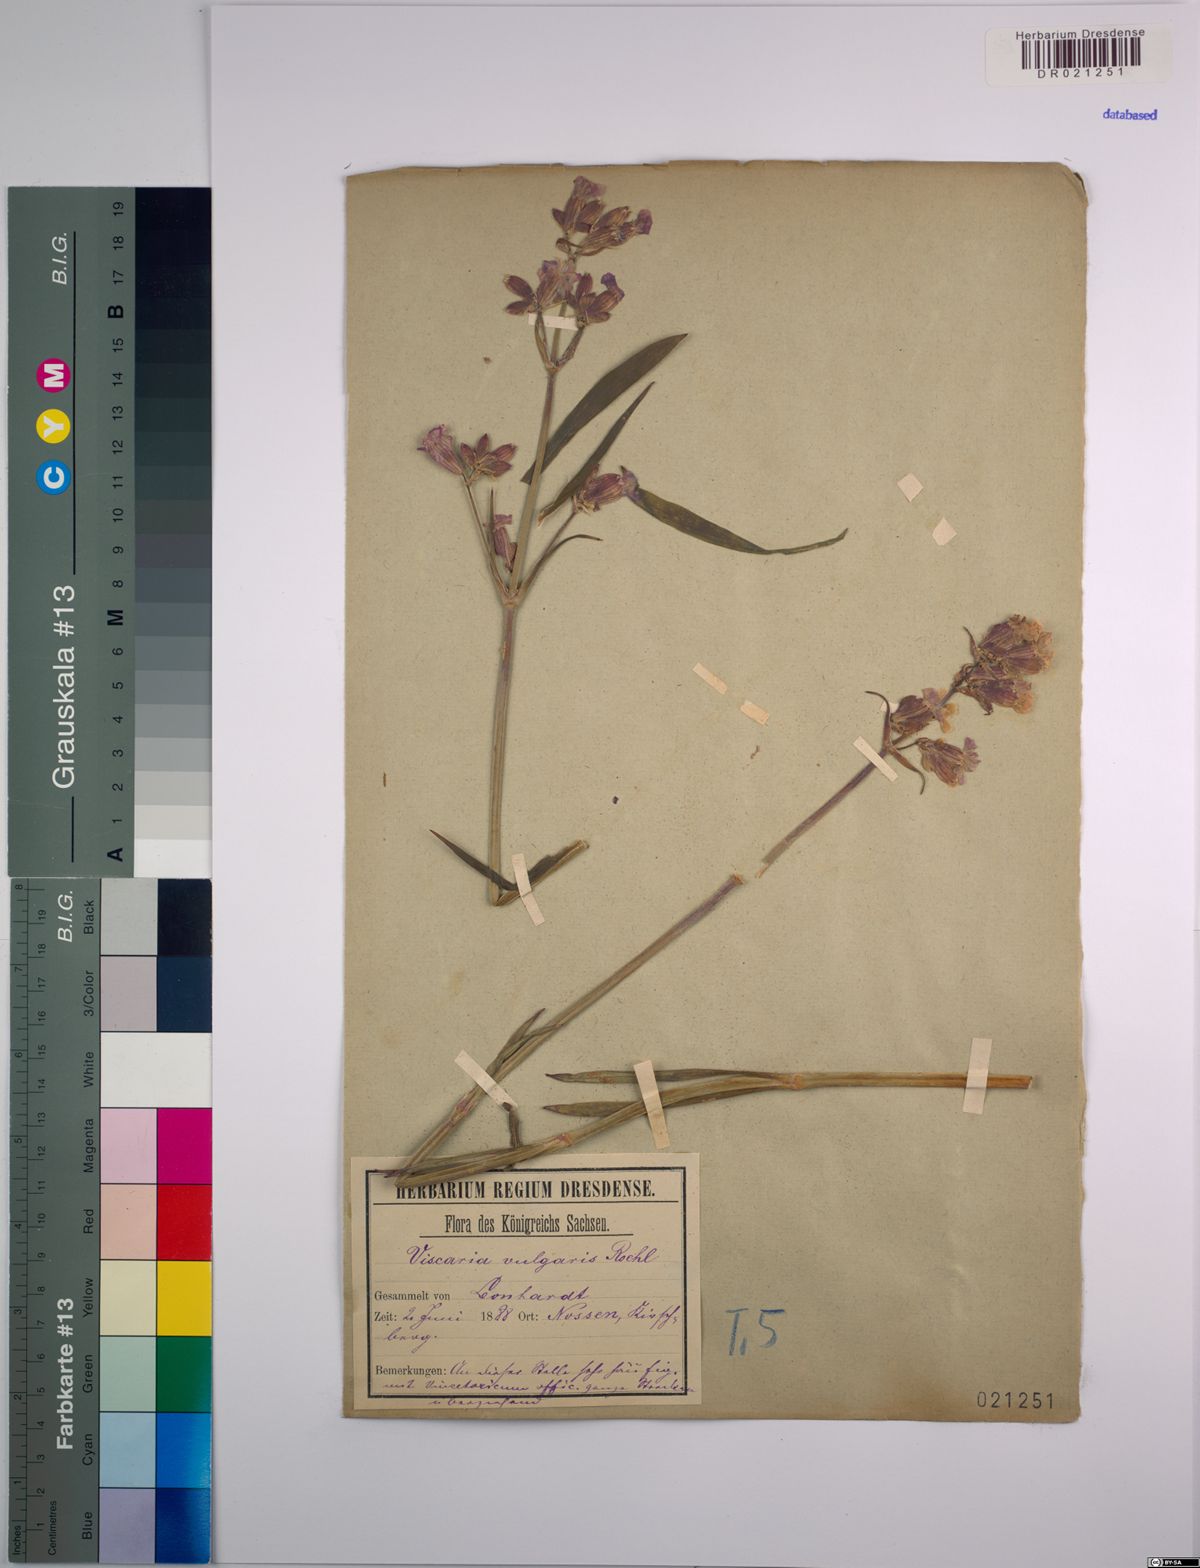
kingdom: Plantae
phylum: Tracheophyta
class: Magnoliopsida
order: Caryophyllales
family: Caryophyllaceae
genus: Viscaria
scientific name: Viscaria vulgaris
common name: Clammy campion
